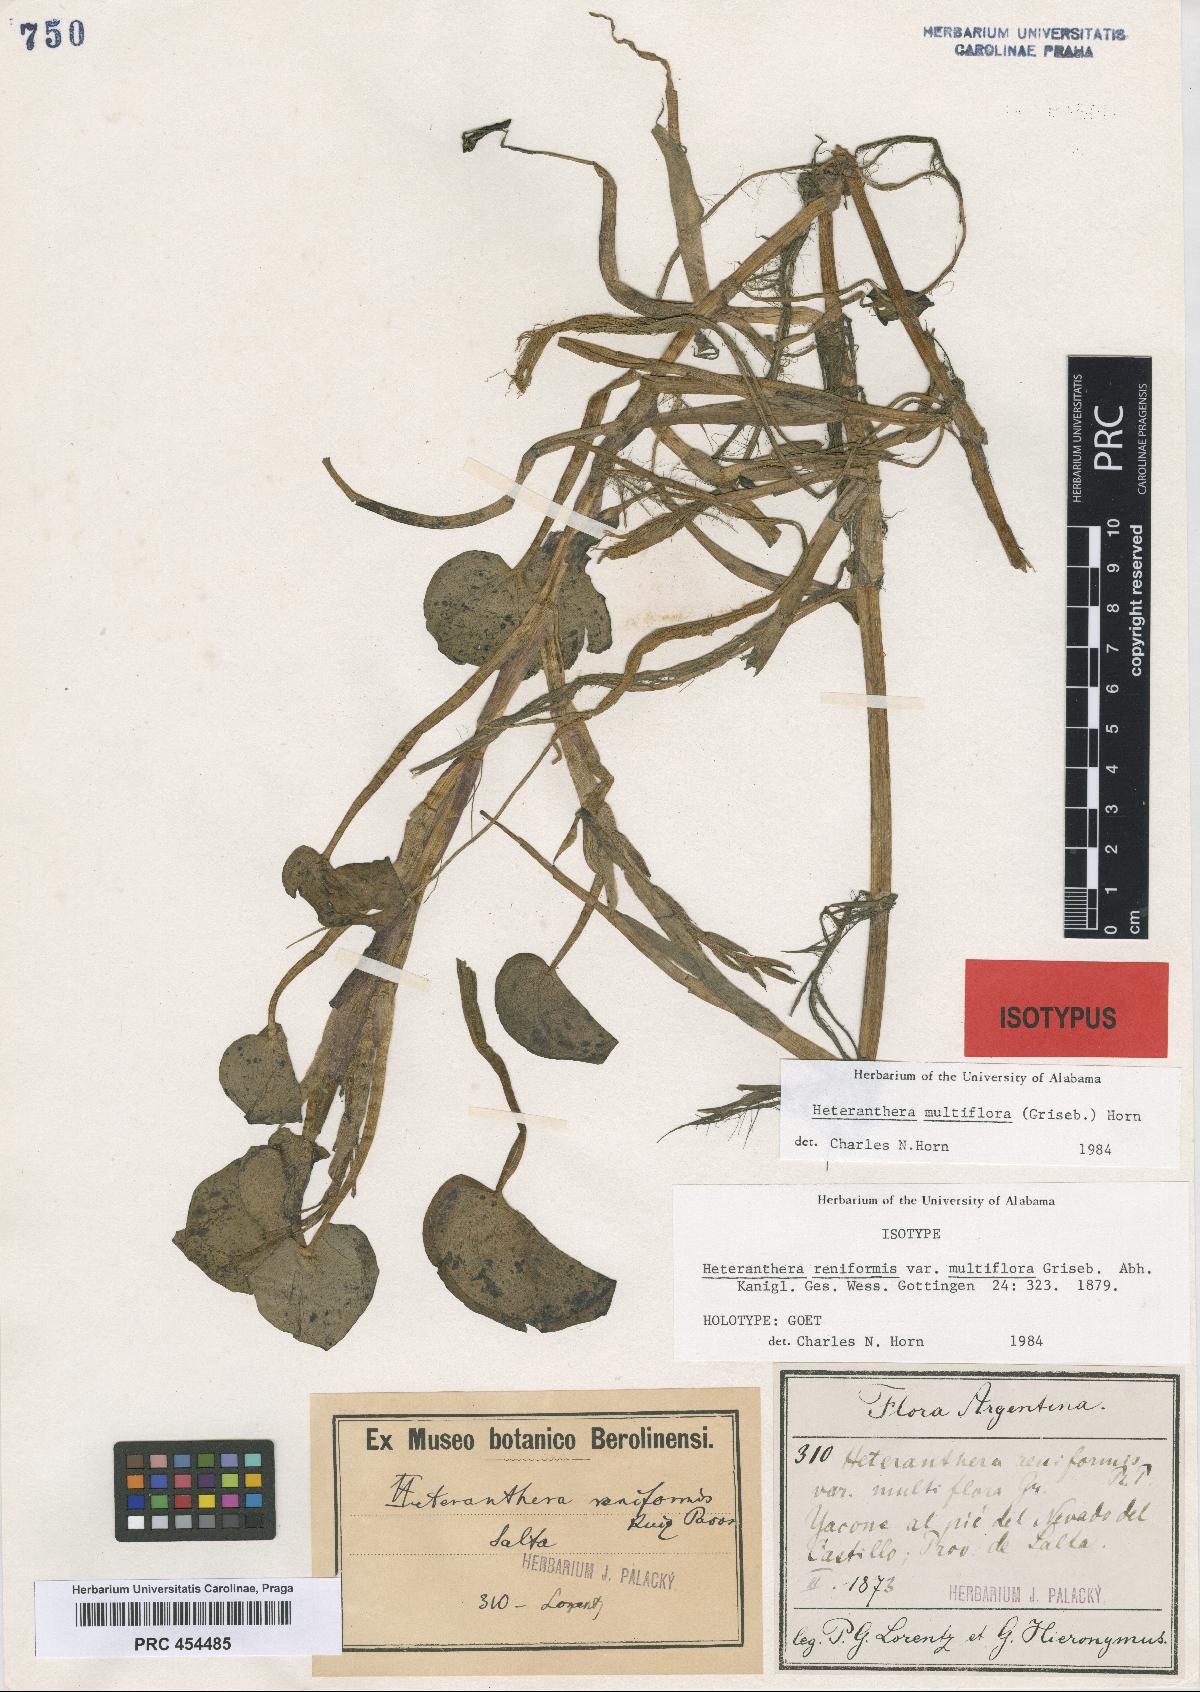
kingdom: Plantae
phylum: Tracheophyta
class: Liliopsida
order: Commelinales
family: Pontederiaceae
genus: Heteranthera
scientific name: Heteranthera multiflora
